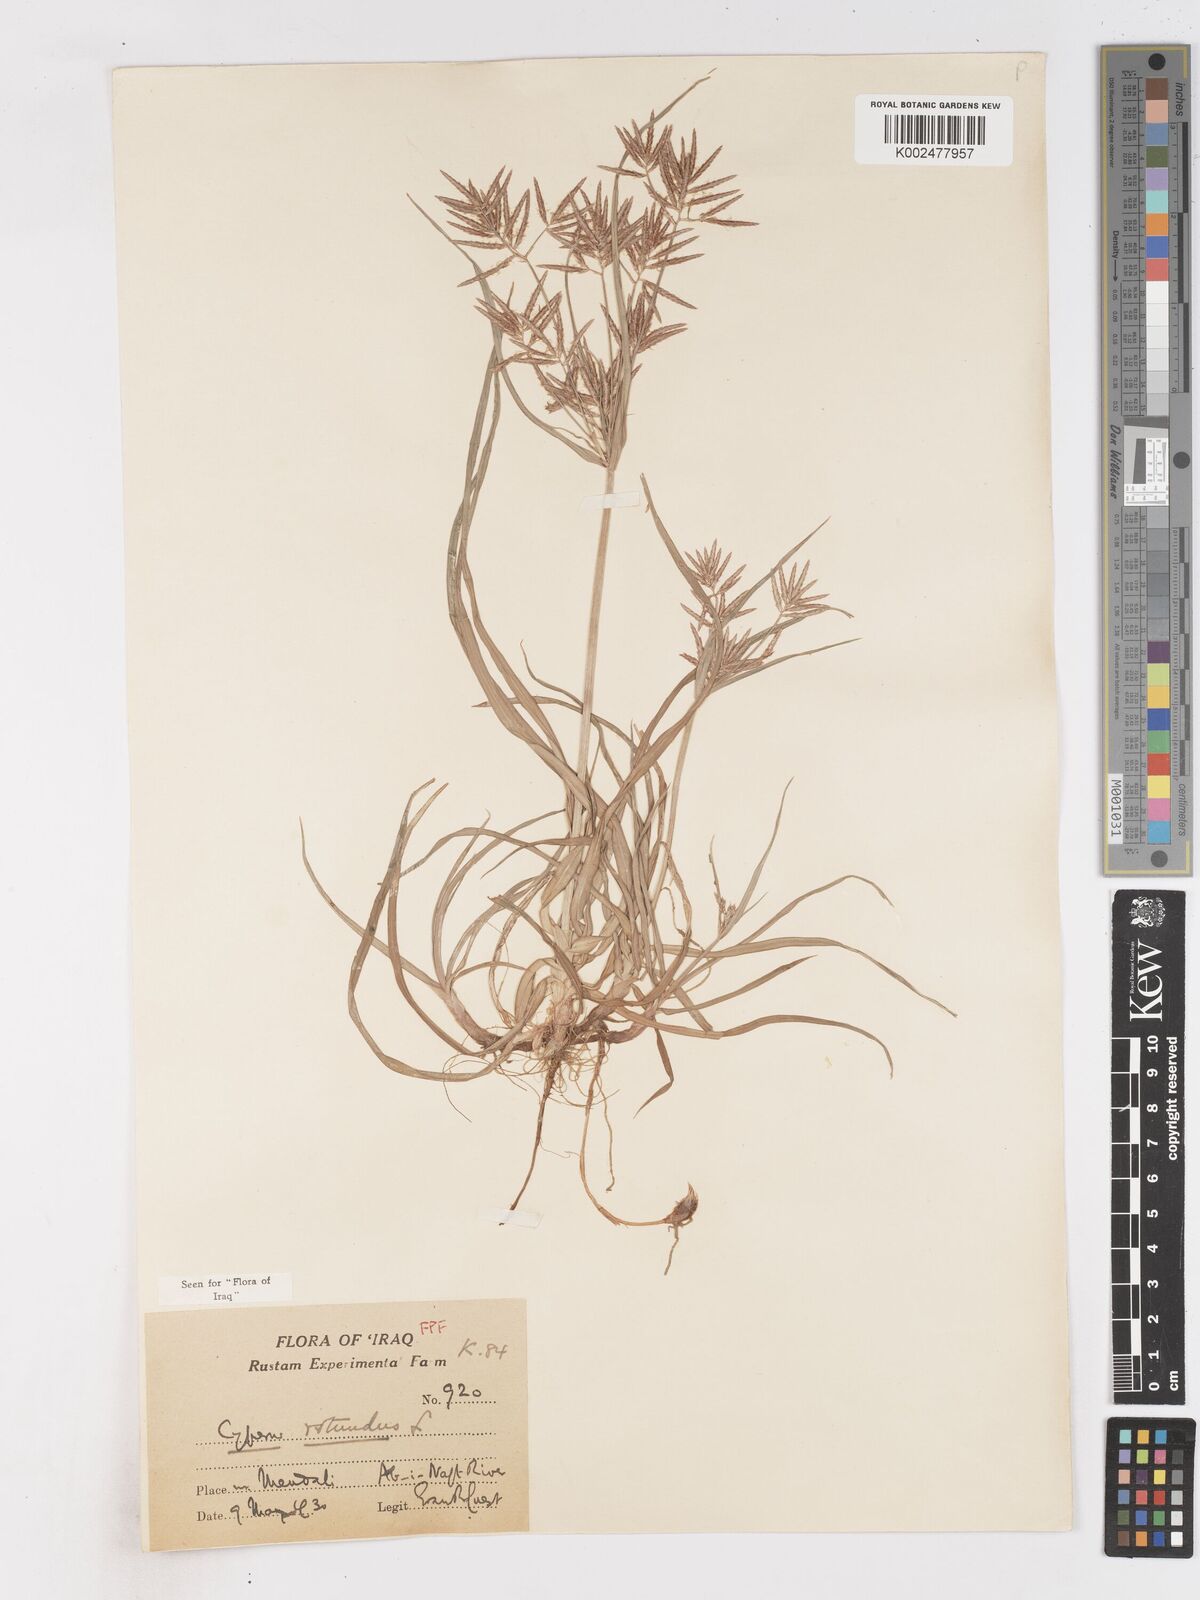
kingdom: Plantae
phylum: Tracheophyta
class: Liliopsida
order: Poales
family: Cyperaceae
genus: Cyperus
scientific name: Cyperus rotundus
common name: Nutgrass
